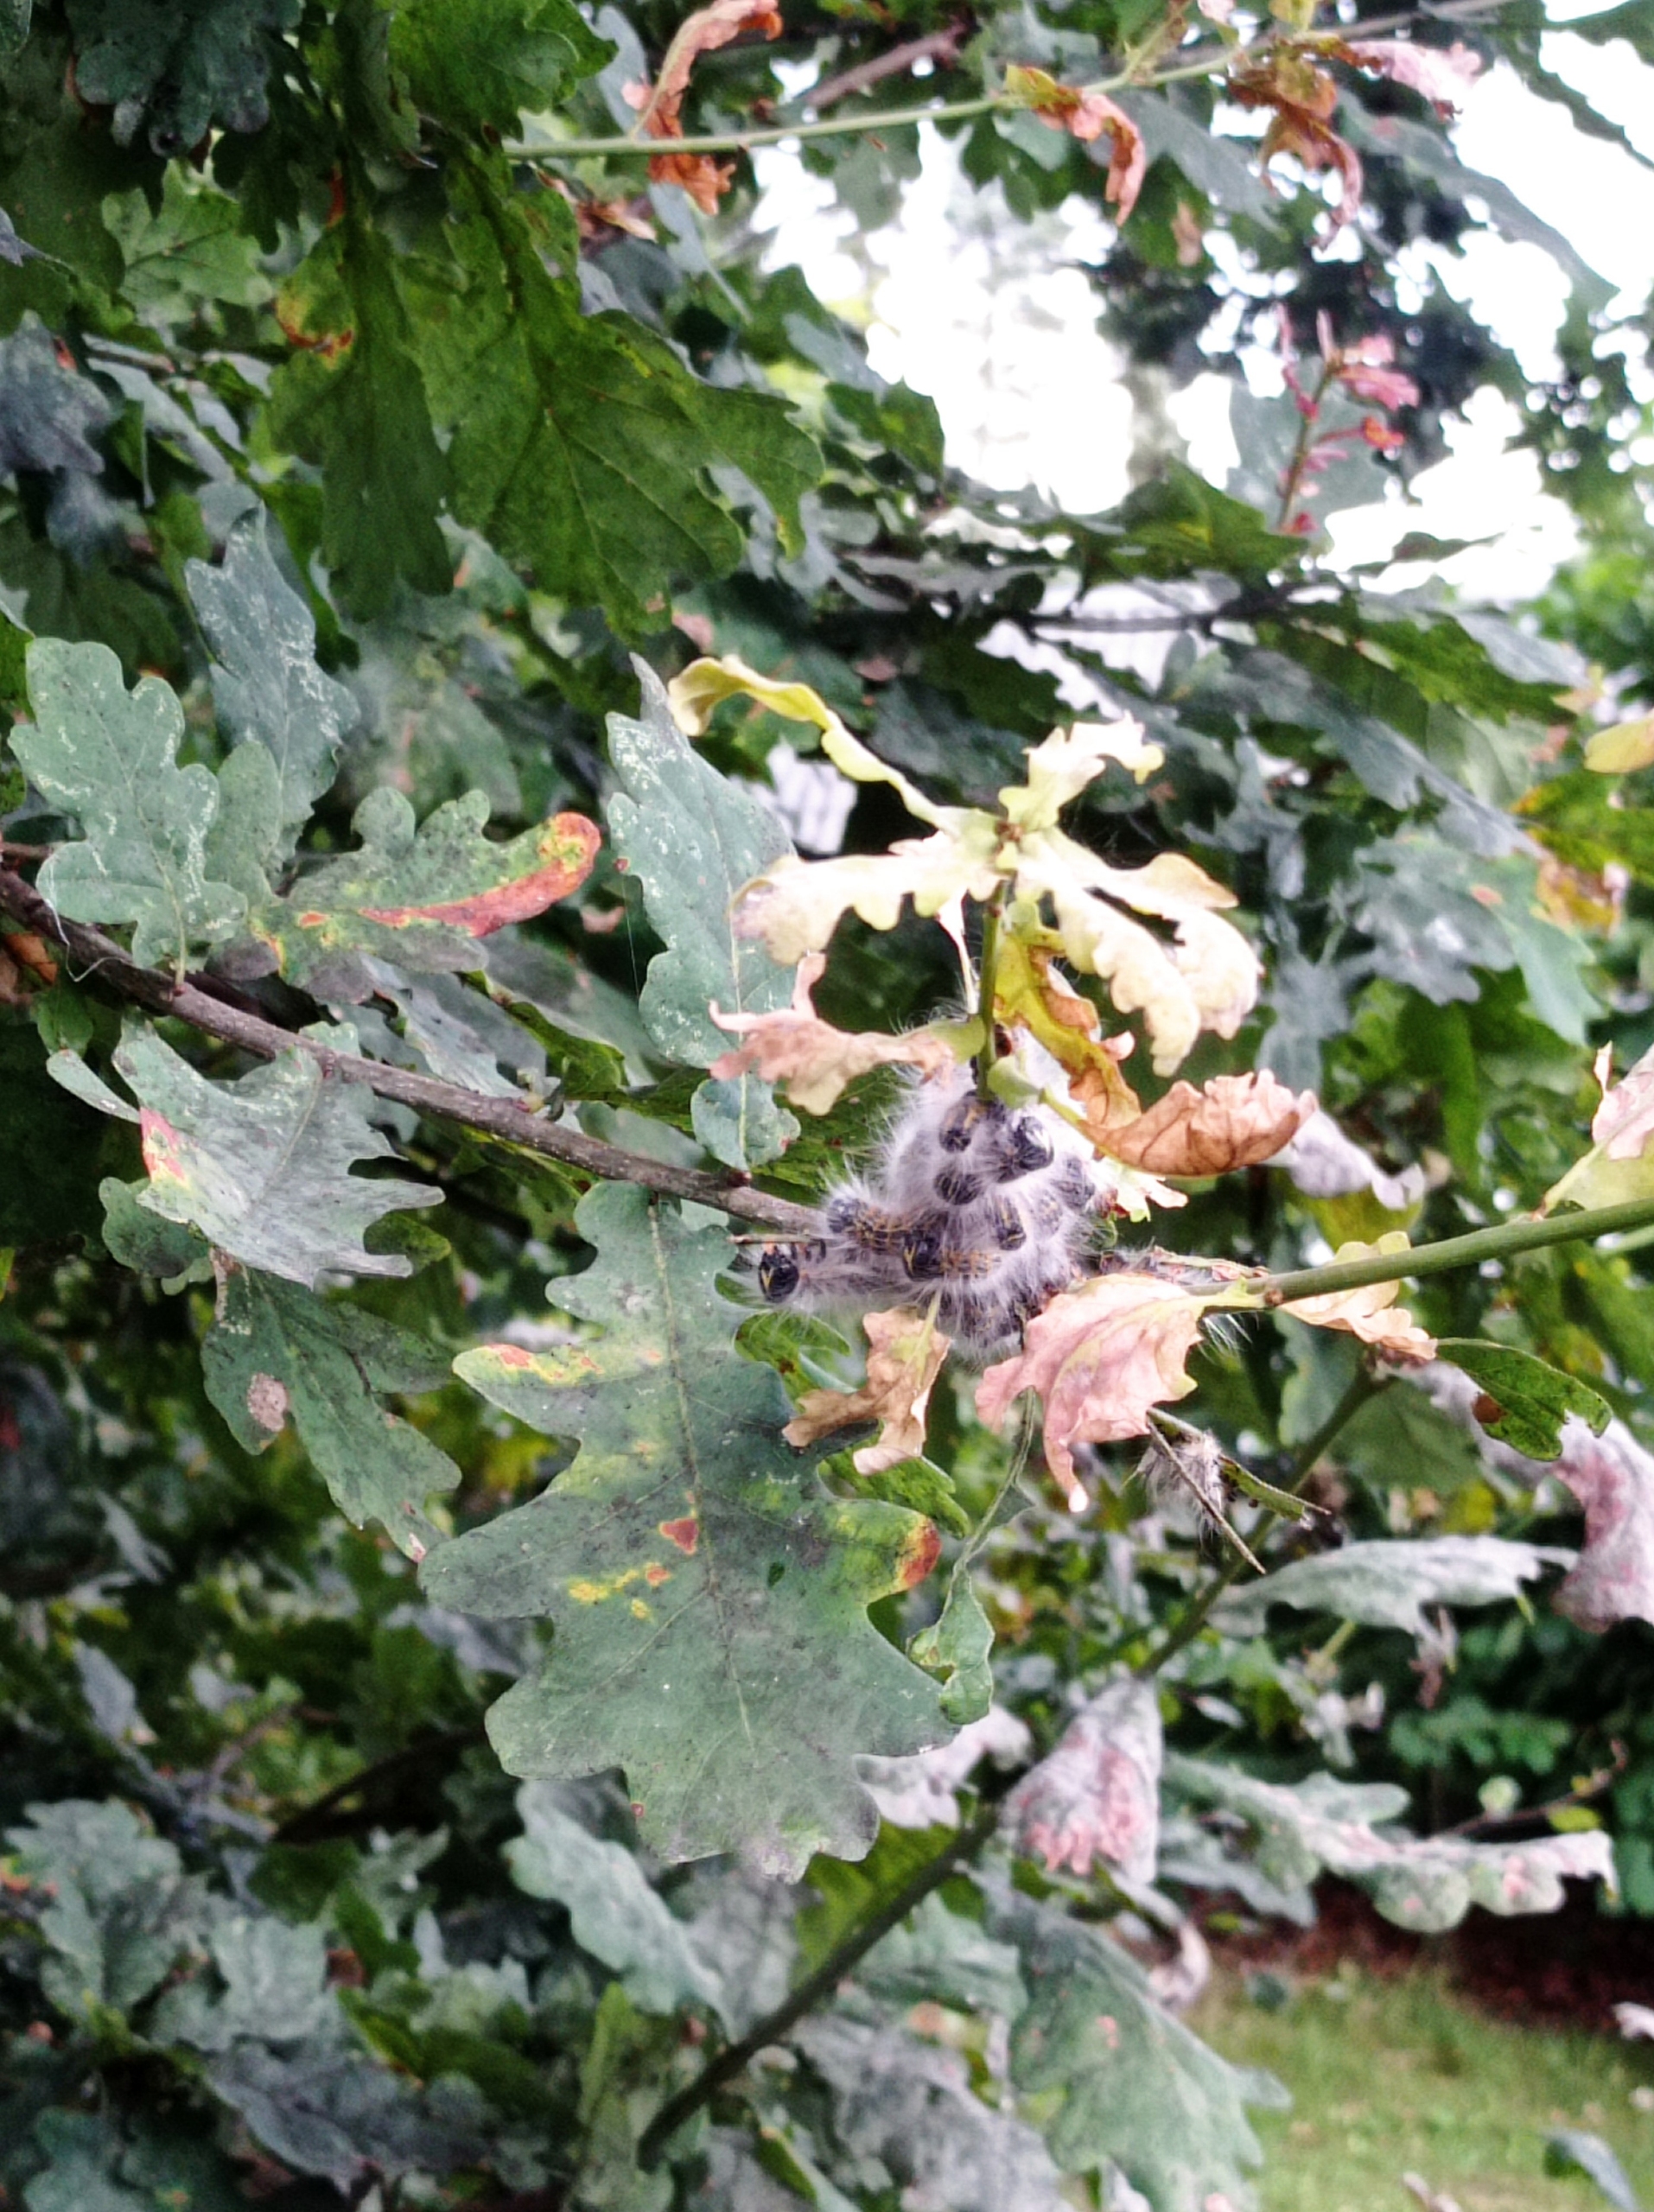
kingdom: Animalia
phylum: Arthropoda
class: Insecta
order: Lepidoptera
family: Notodontidae
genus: Phalera
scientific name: Phalera bucephala
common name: Måneplet
